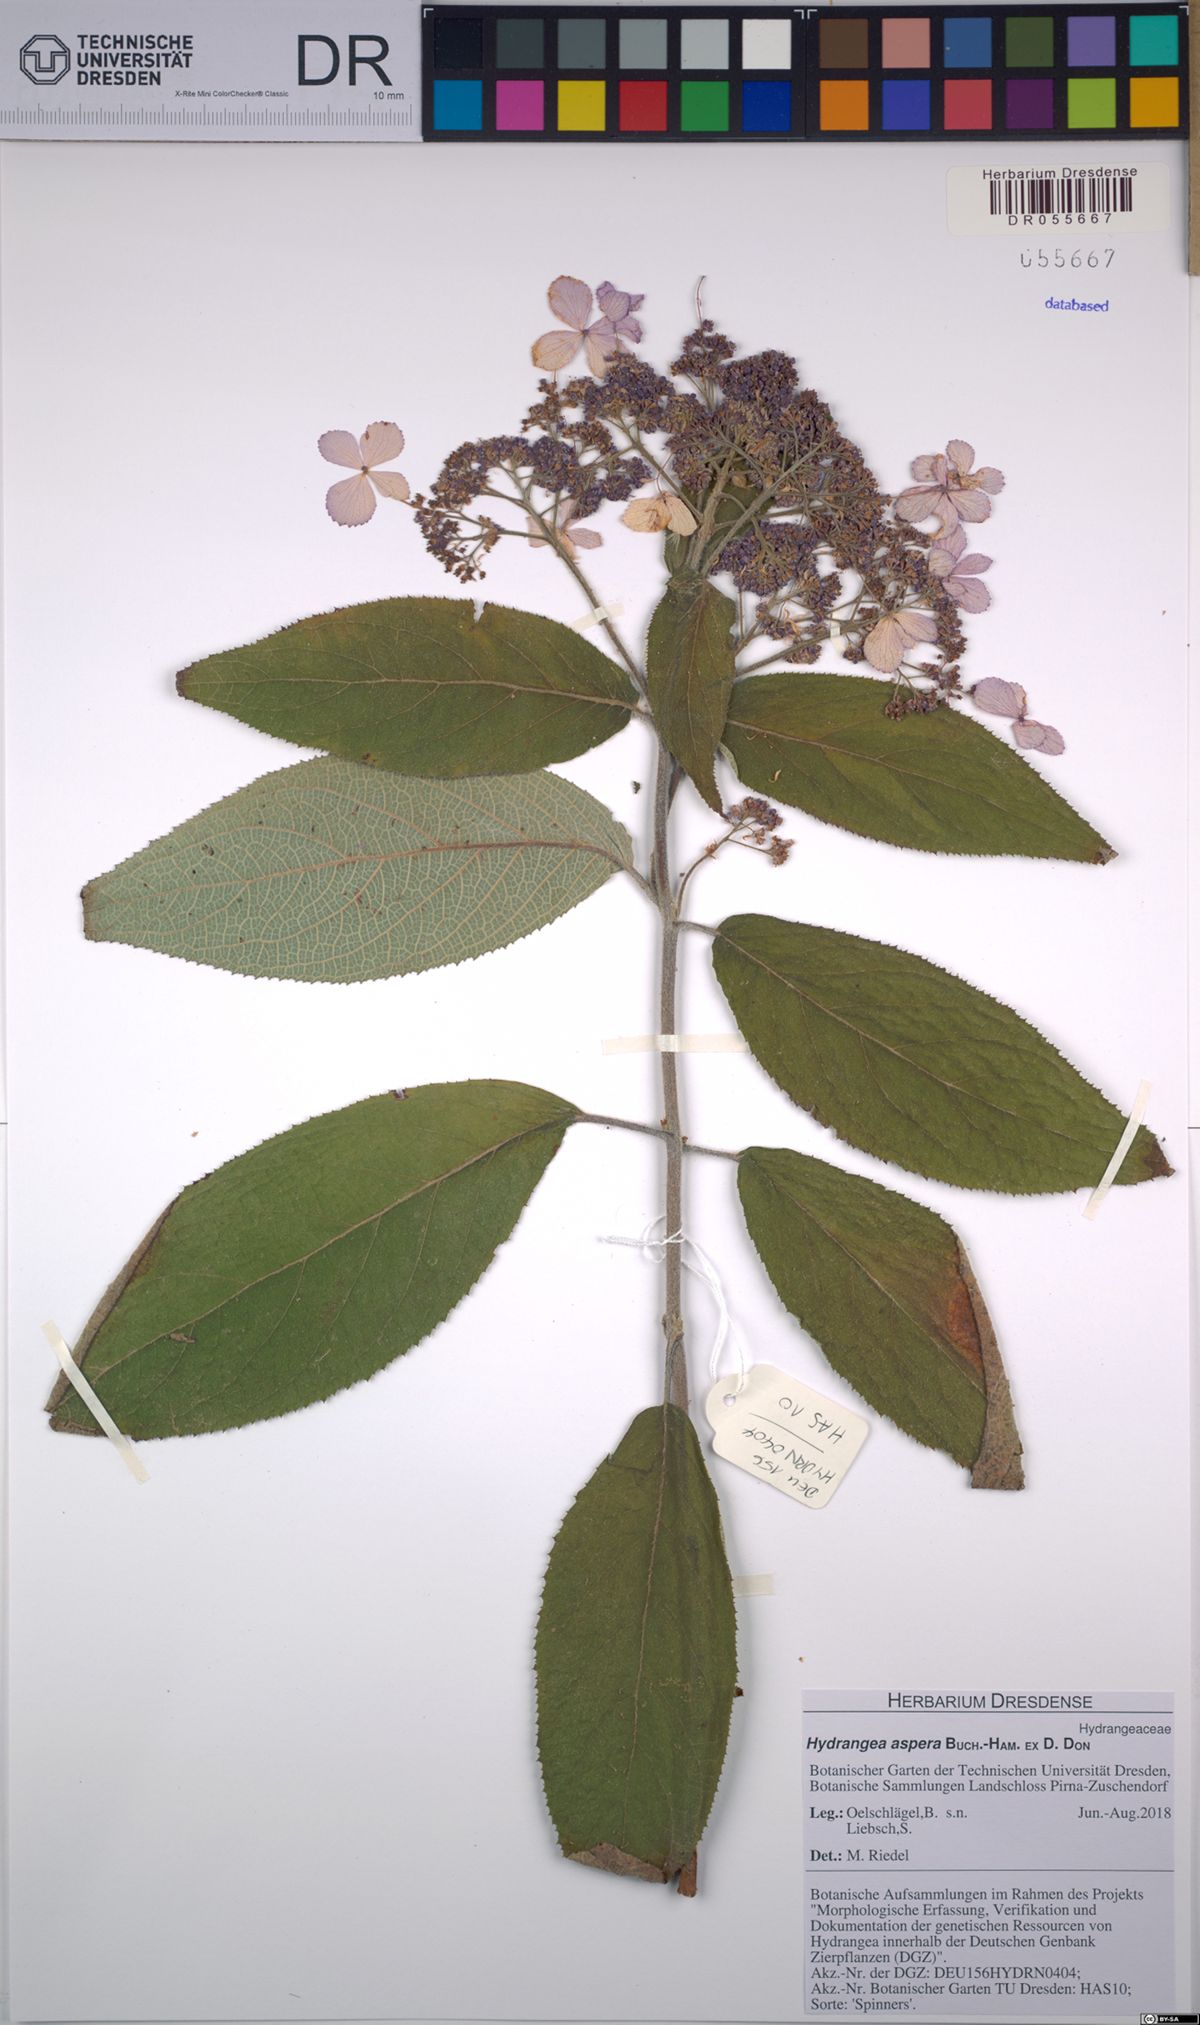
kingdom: Plantae
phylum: Tracheophyta
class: Magnoliopsida
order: Cornales
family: Hydrangeaceae
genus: Hydrangea
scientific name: Hydrangea aspera
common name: Rough-leaf hydrangea
